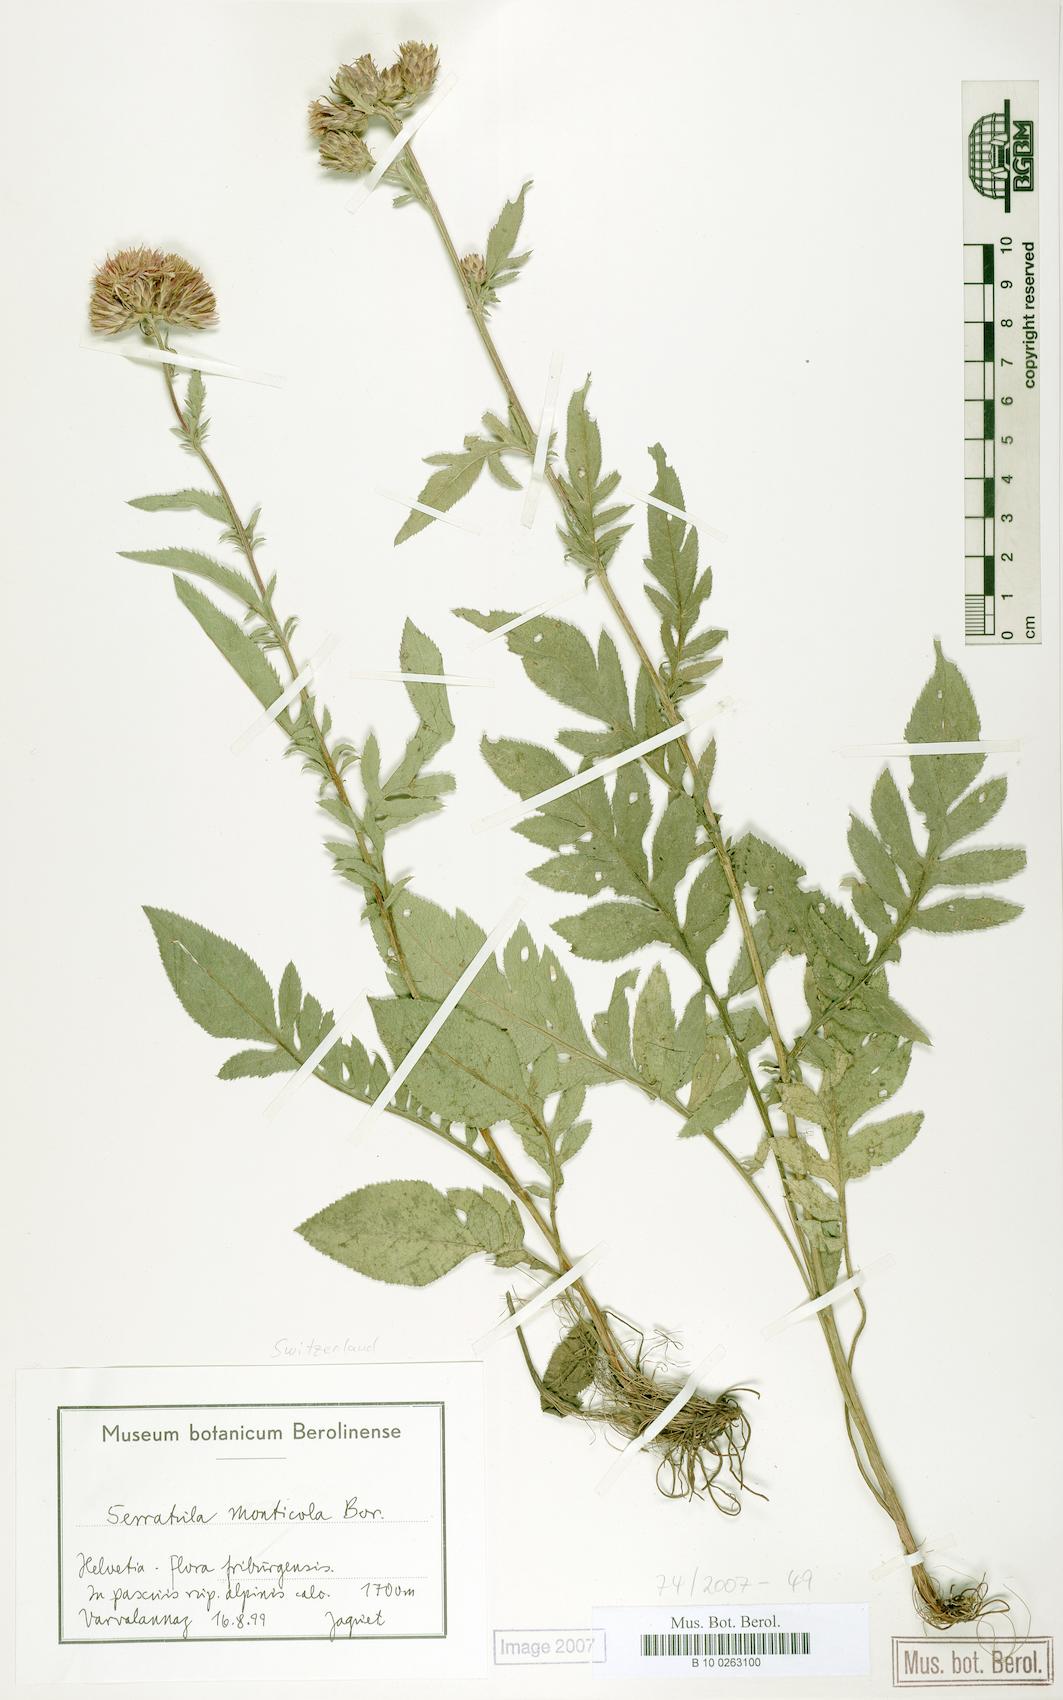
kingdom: Plantae
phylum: Tracheophyta
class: Magnoliopsida
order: Asterales
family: Asteraceae
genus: Serratula
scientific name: Serratula tinctoria
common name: Saw-wort
